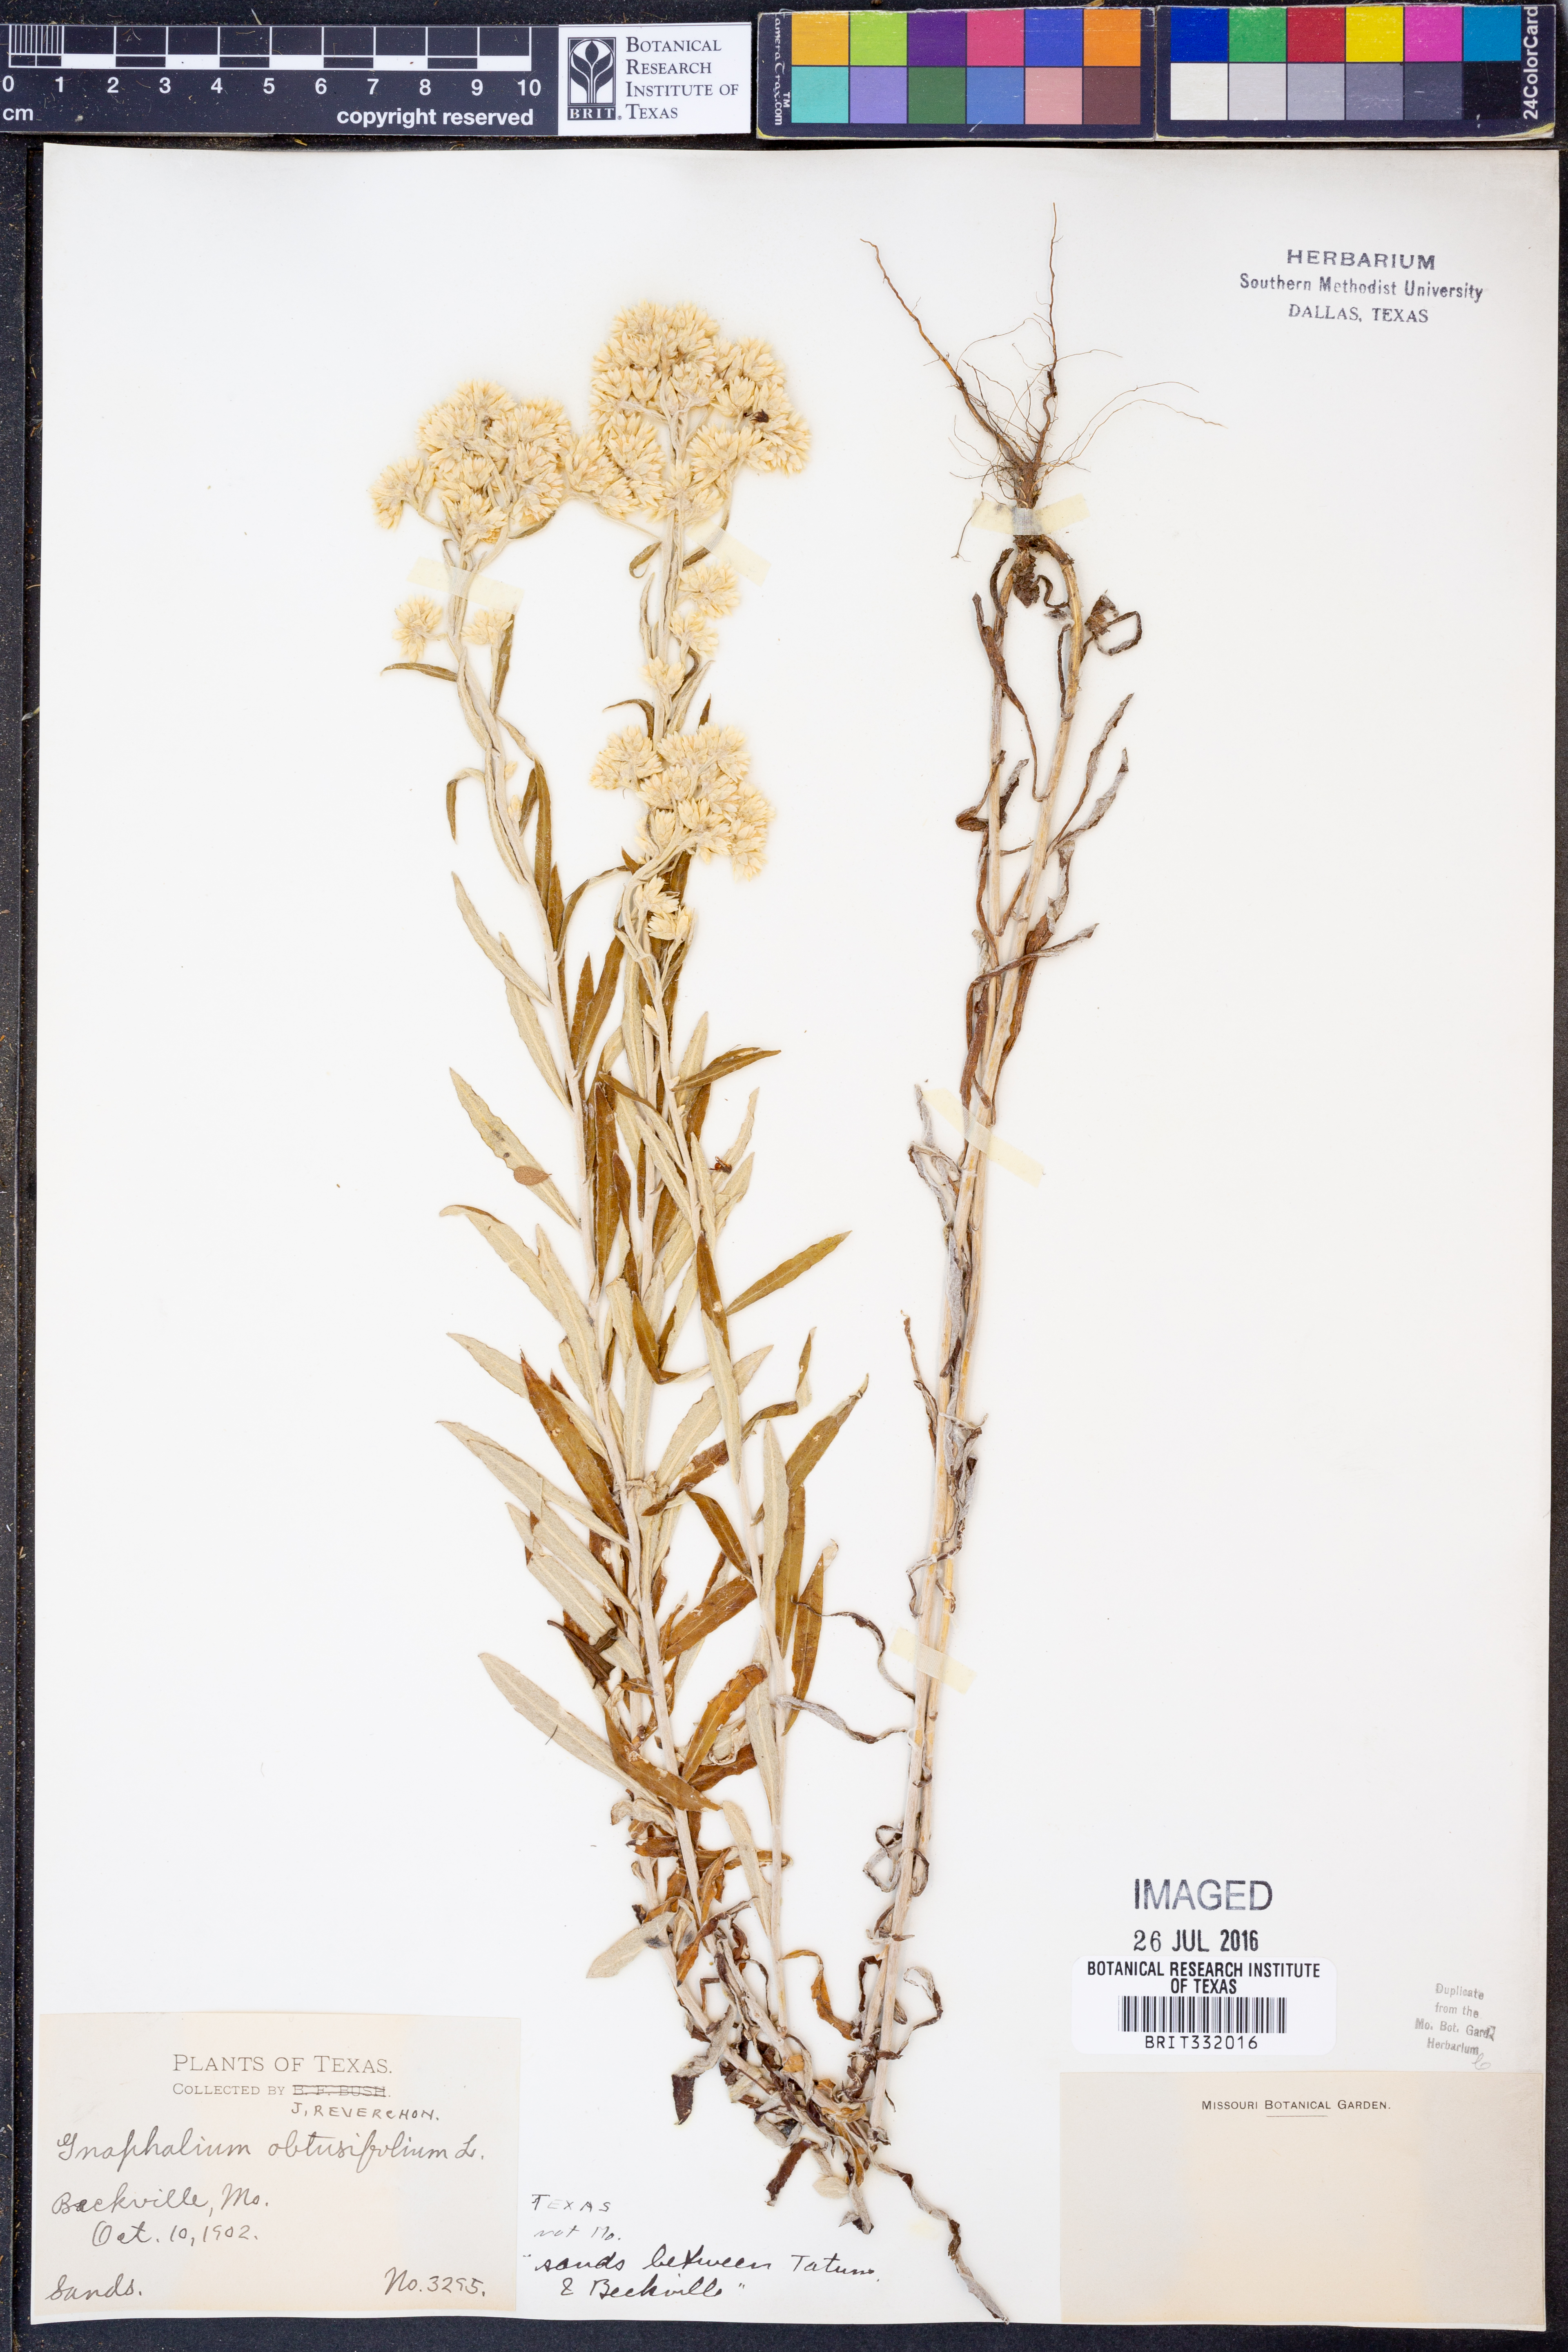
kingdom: Plantae
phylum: Tracheophyta
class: Magnoliopsida
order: Asterales
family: Asteraceae
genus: Pseudognaphalium
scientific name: Pseudognaphalium obtusifolium
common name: Eastern rabbit-tobacco
